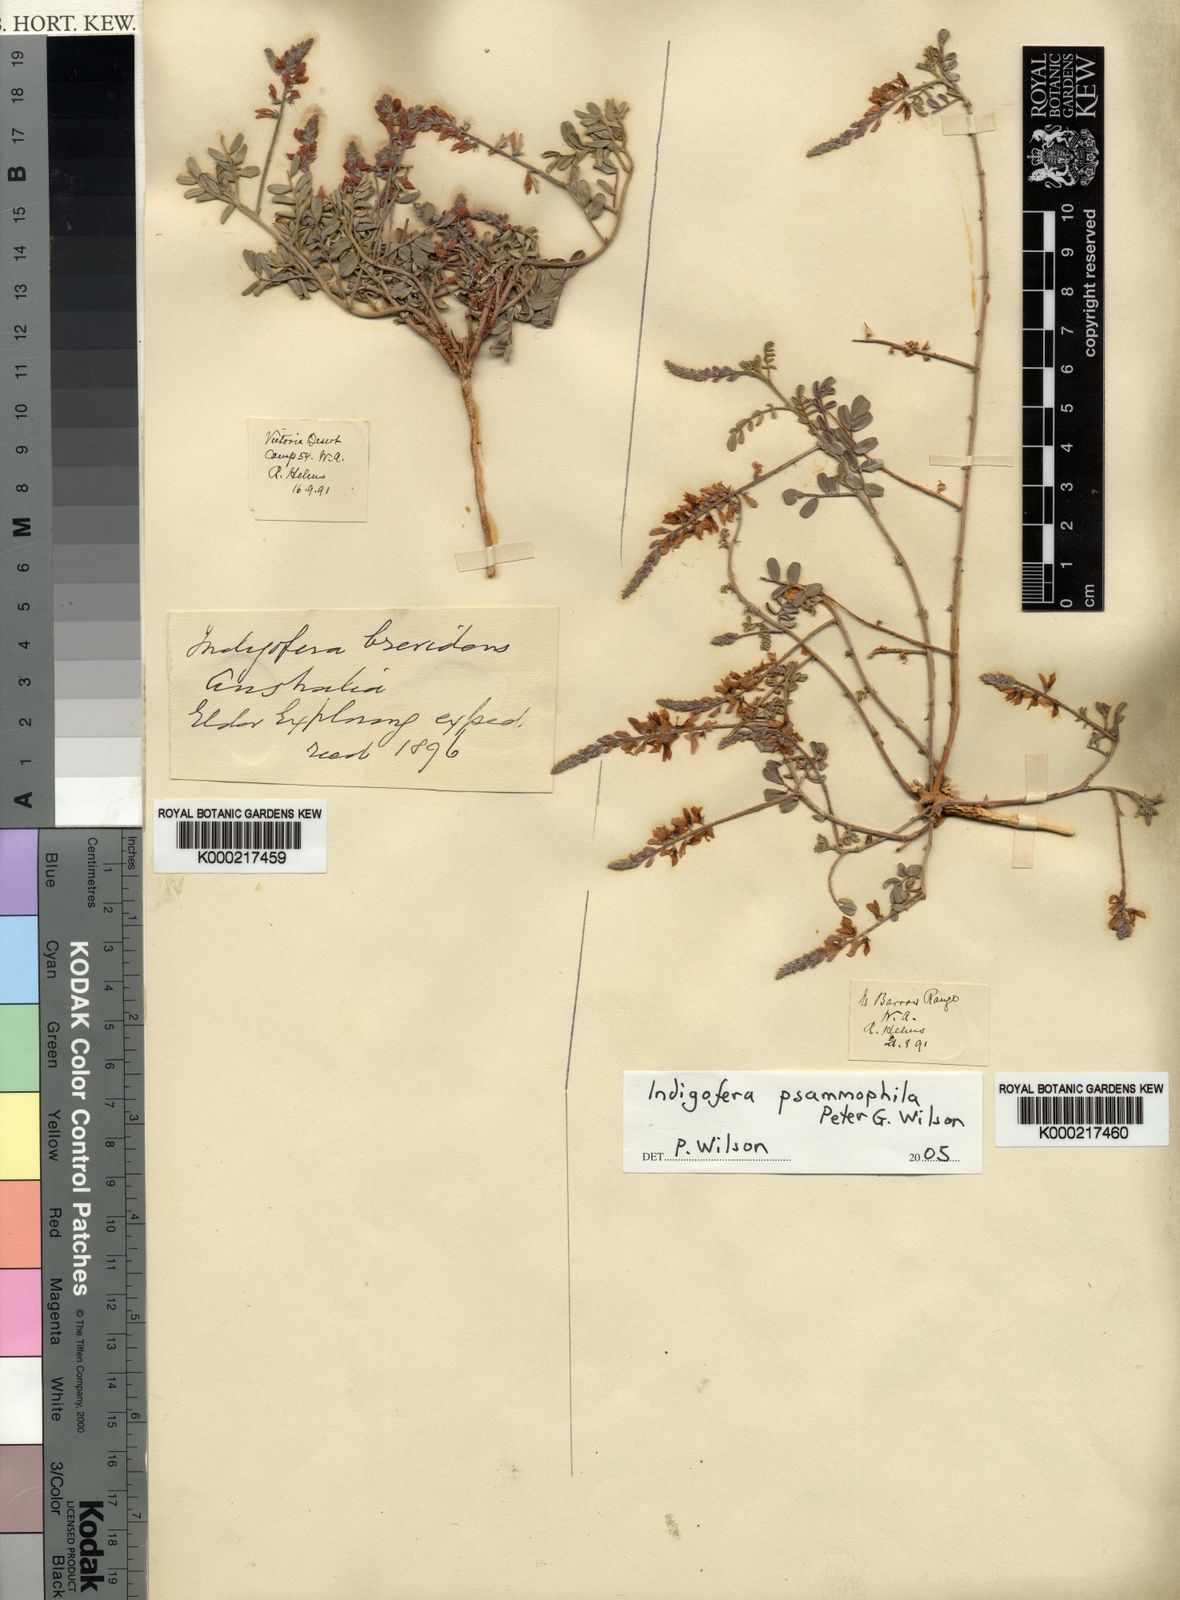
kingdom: Plantae
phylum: Tracheophyta
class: Magnoliopsida
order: Fabales
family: Fabaceae
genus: Indigofera
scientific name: Indigofera psammophila
